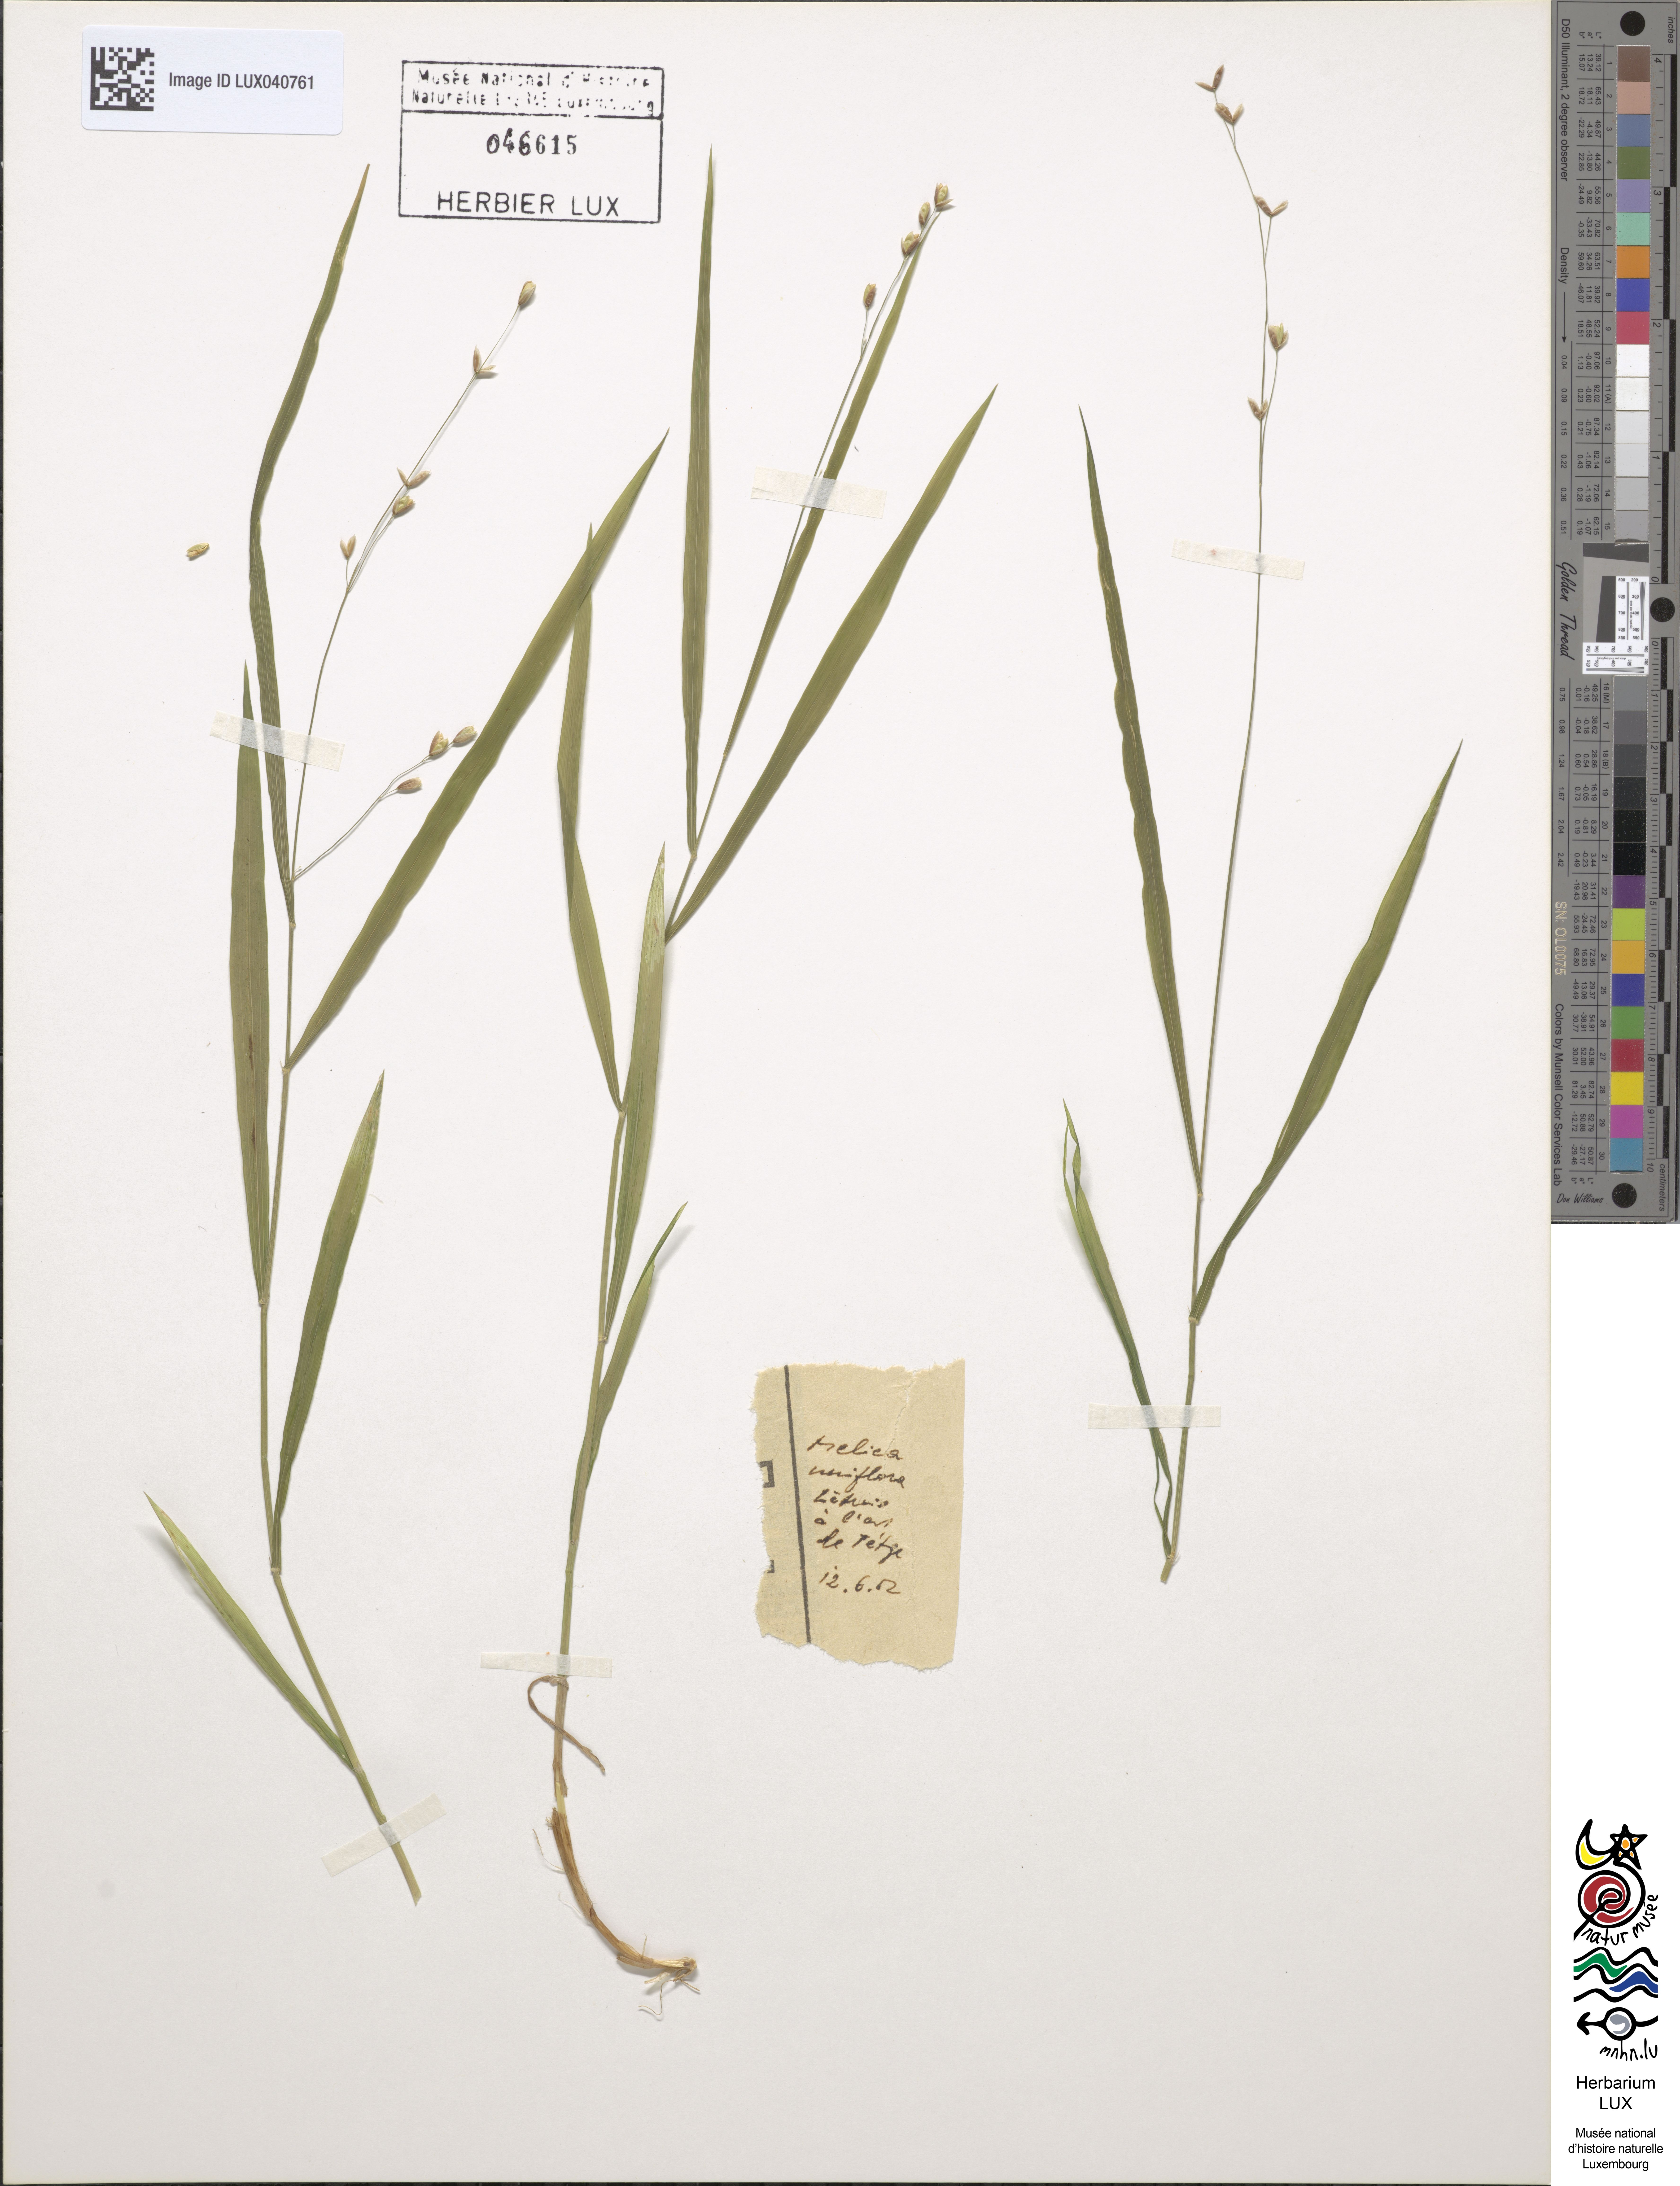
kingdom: Plantae
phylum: Tracheophyta
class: Liliopsida
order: Poales
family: Poaceae
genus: Melica
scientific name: Melica uniflora
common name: Wood melick
